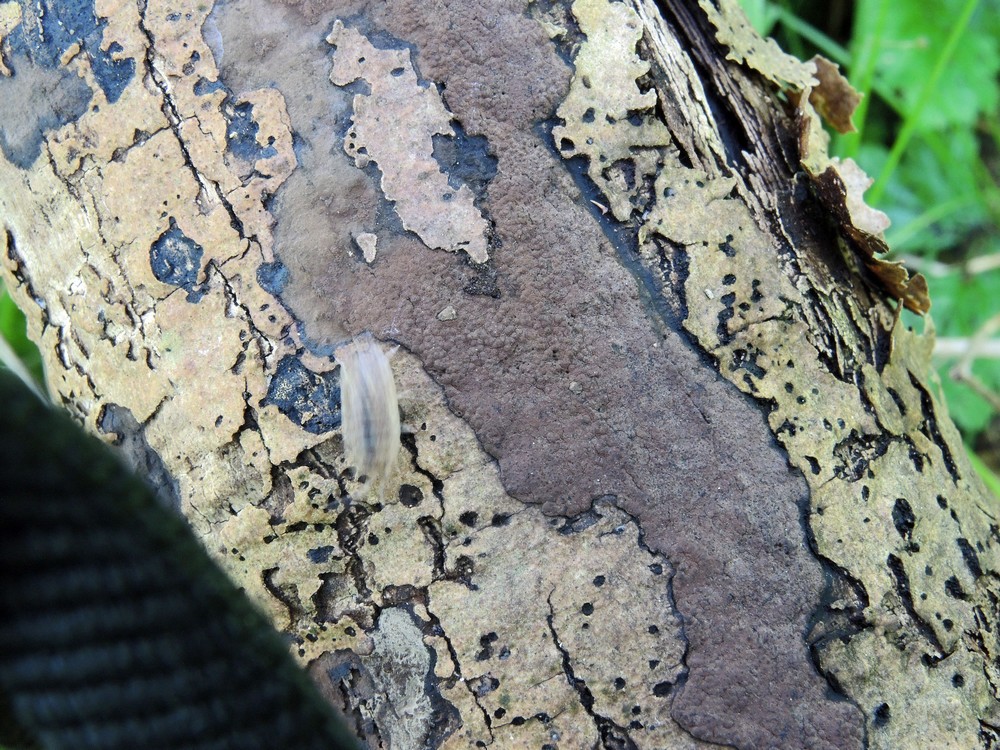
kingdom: Fungi
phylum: Ascomycota
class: Sordariomycetes
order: Xylariales
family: Hypoxylaceae
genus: Hypoxylon
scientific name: Hypoxylon petriniae
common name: nedsænket kulbær
